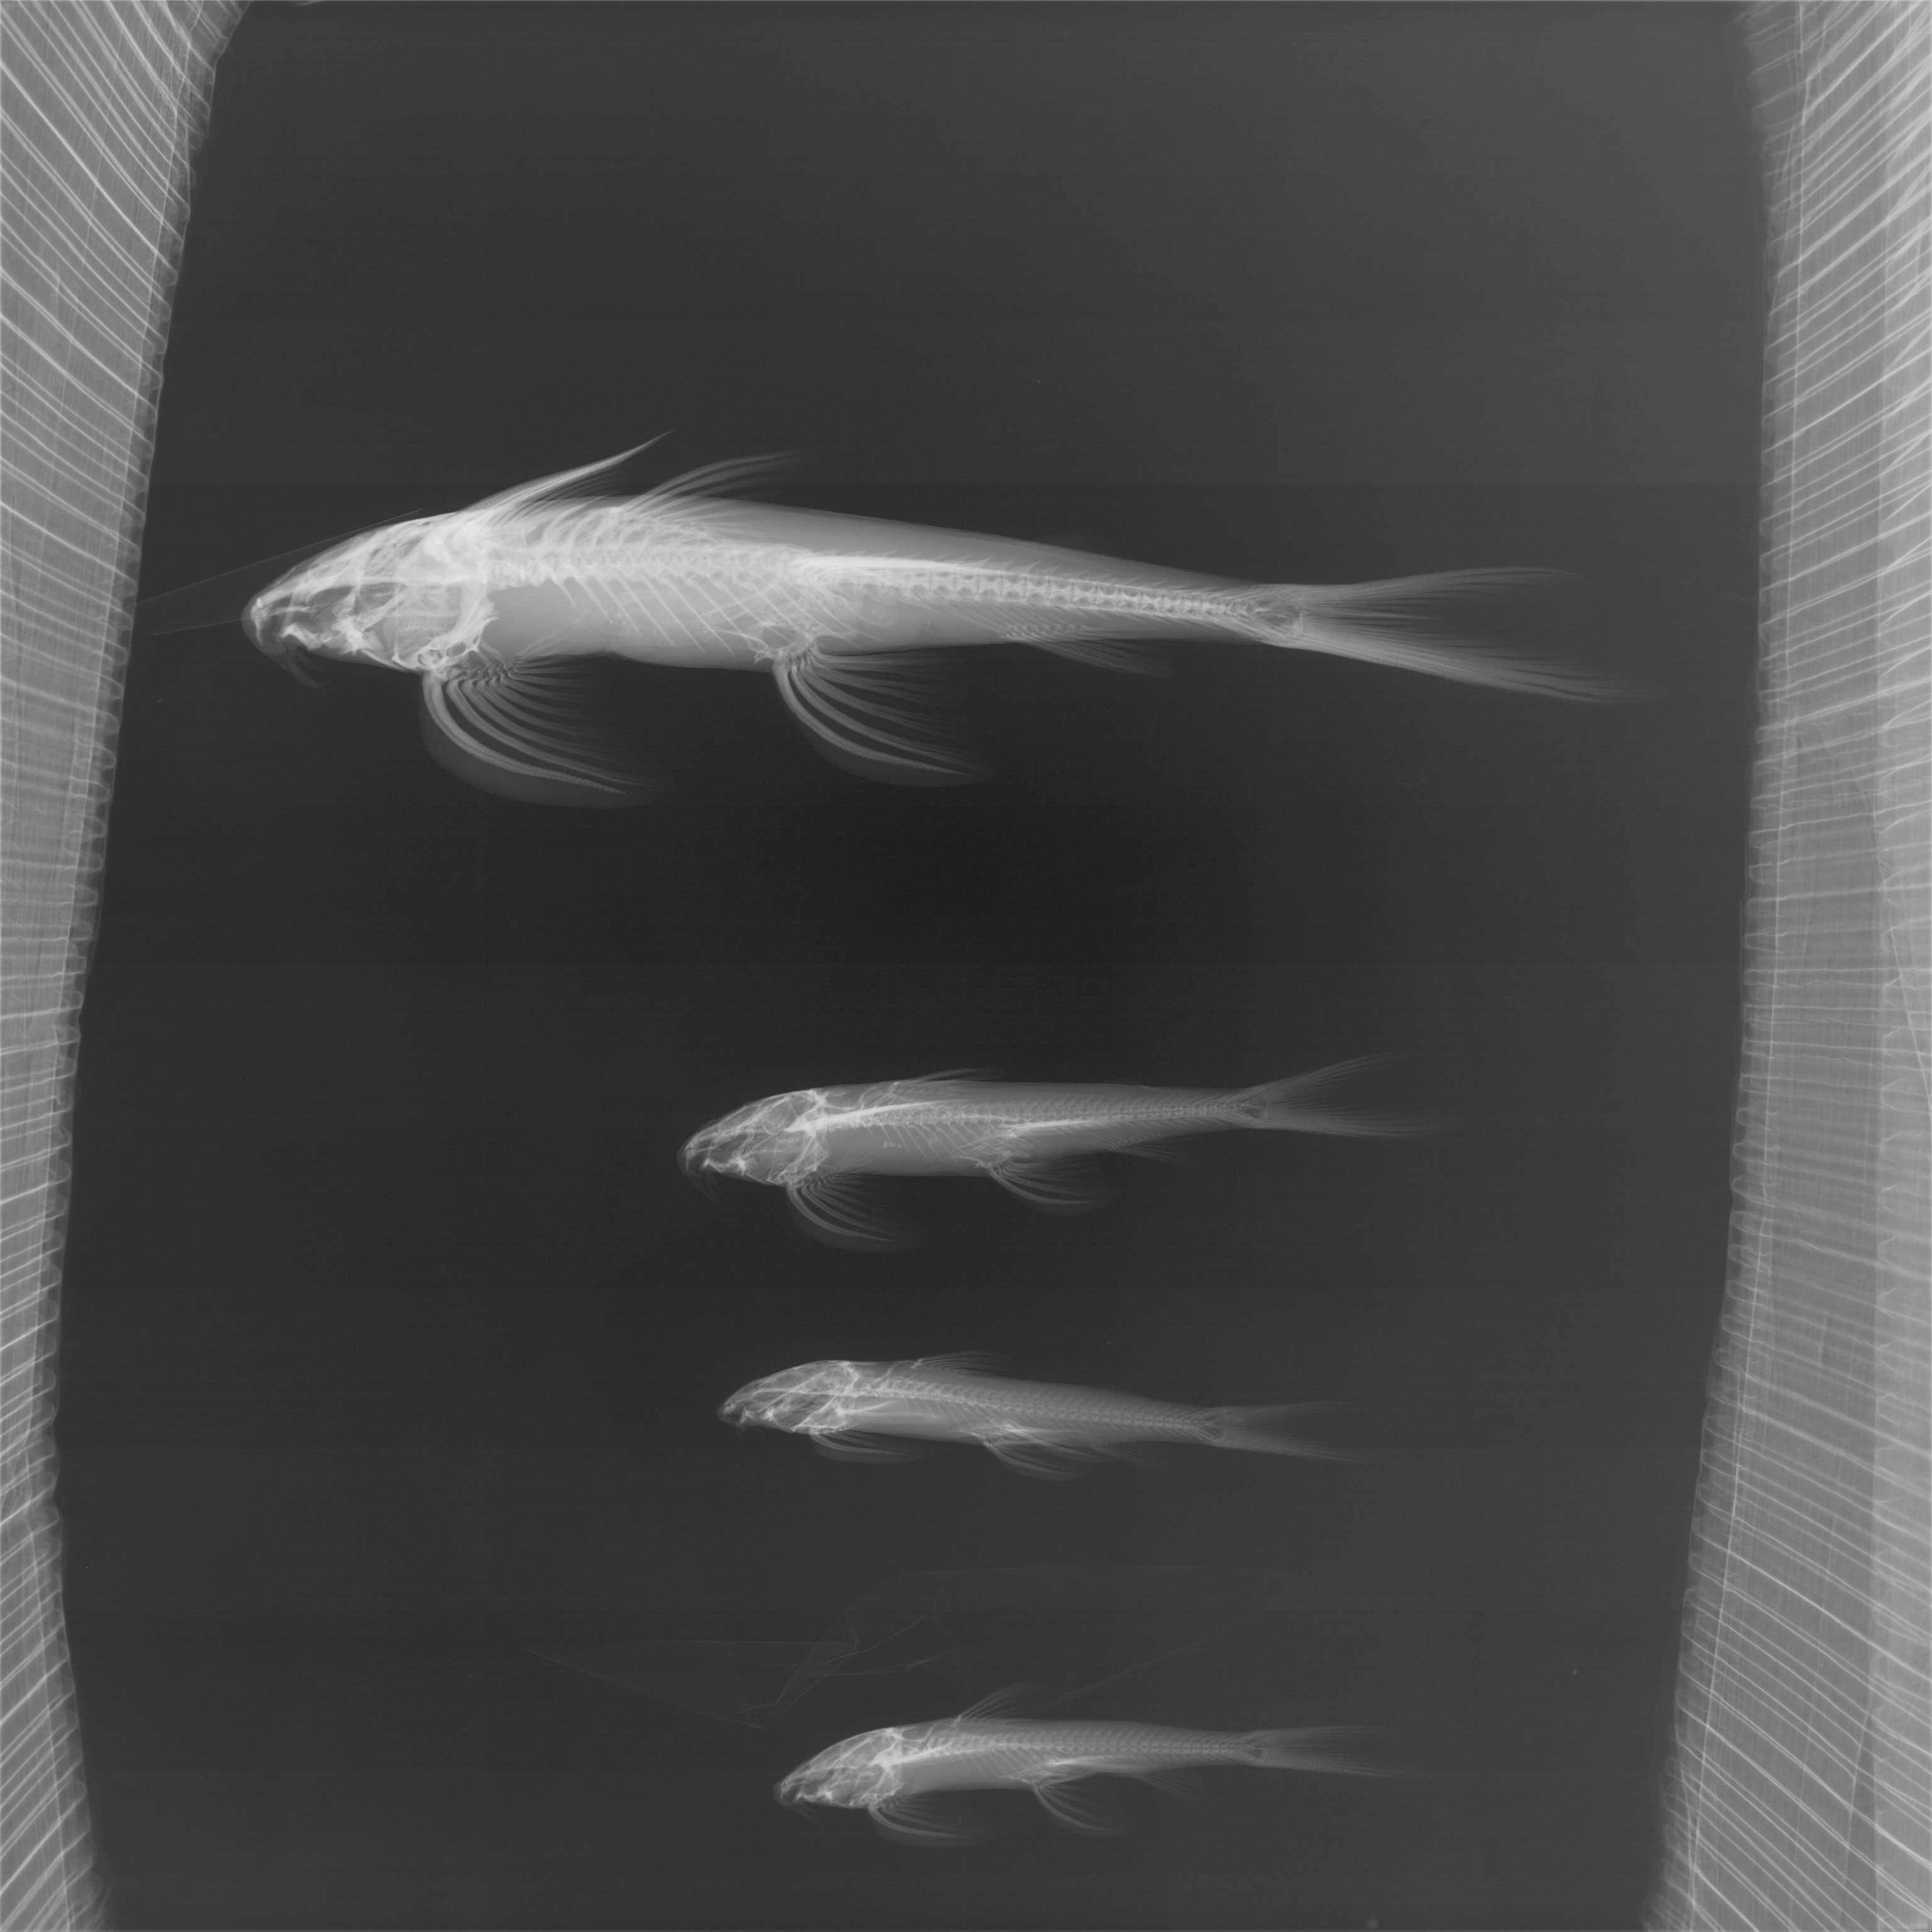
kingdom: Animalia
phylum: Chordata
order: Siluriformes
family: Amphiliidae
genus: Congoglanis
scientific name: Congoglanis alula
